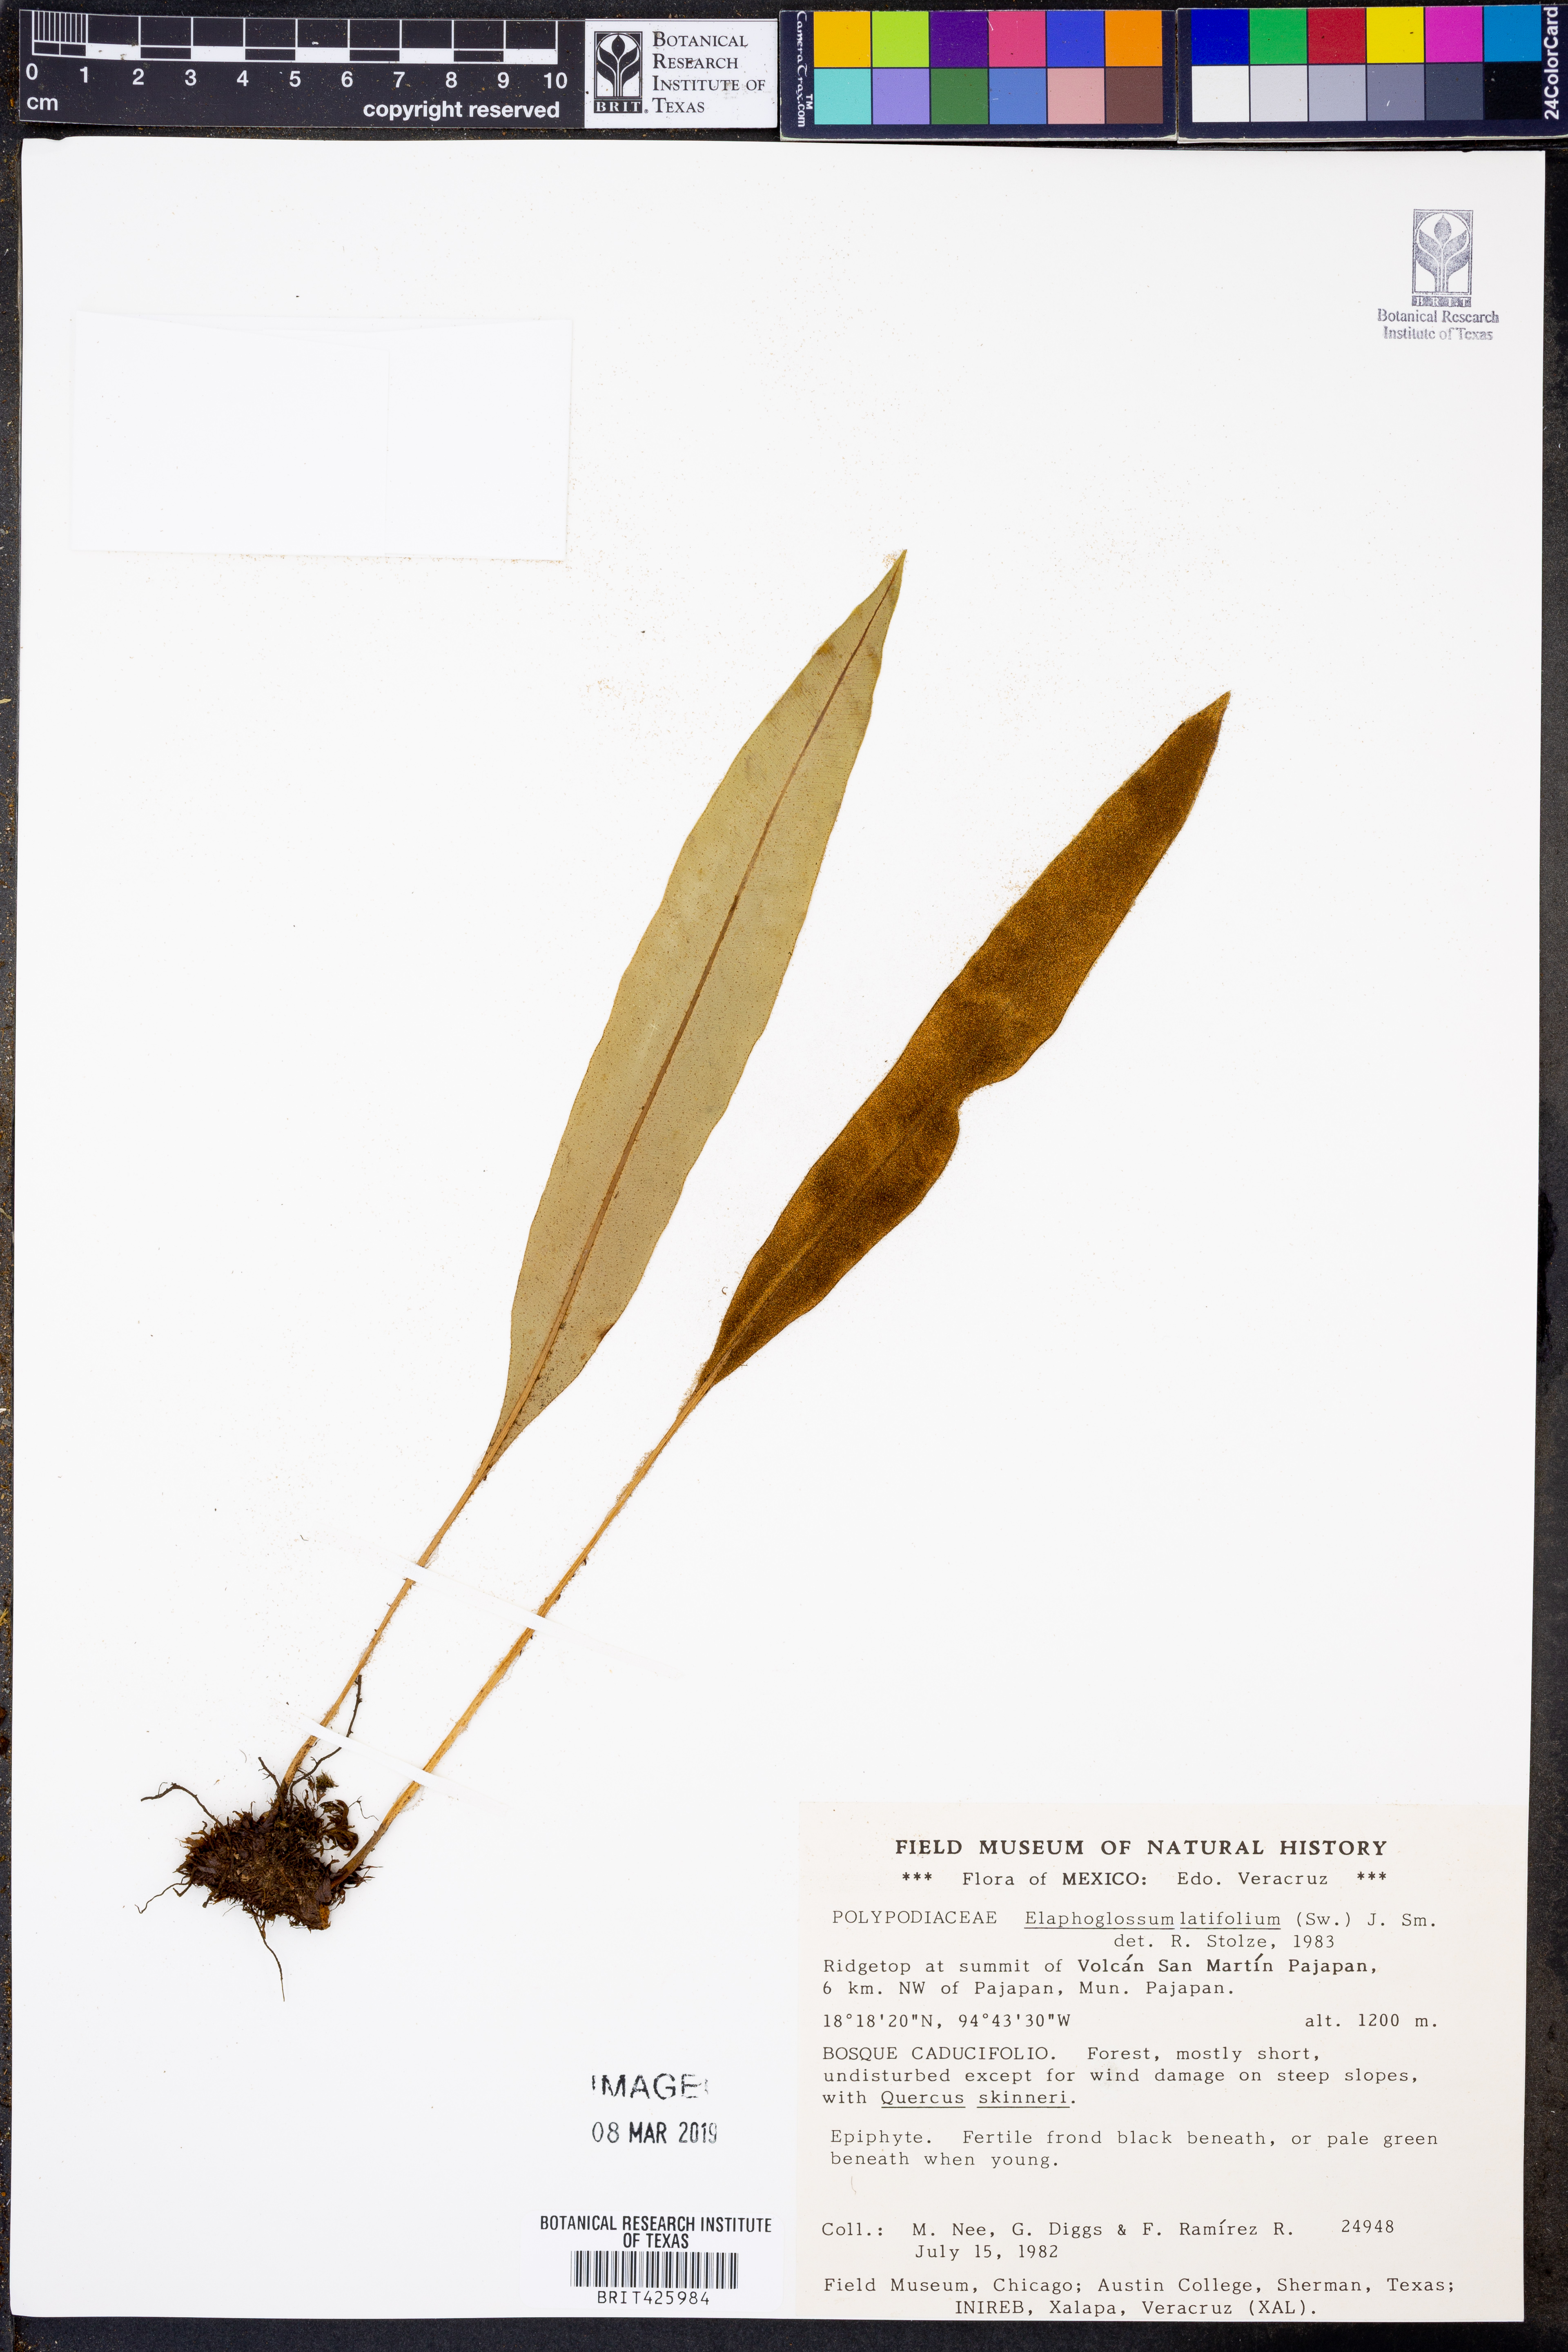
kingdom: Plantae
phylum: Tracheophyta
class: Polypodiopsida
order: Polypodiales
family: Dryopteridaceae
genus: Elaphoglossum
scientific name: Elaphoglossum latifolium
